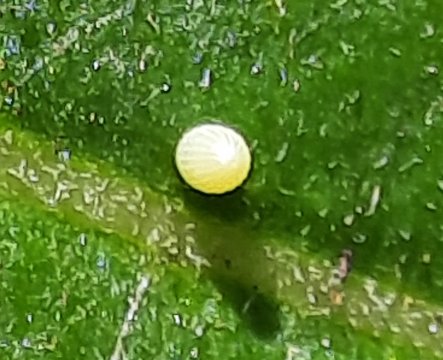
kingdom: Animalia
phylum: Arthropoda
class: Insecta
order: Lepidoptera
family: Nymphalidae
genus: Danaus
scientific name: Danaus plexippus
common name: Monarch
